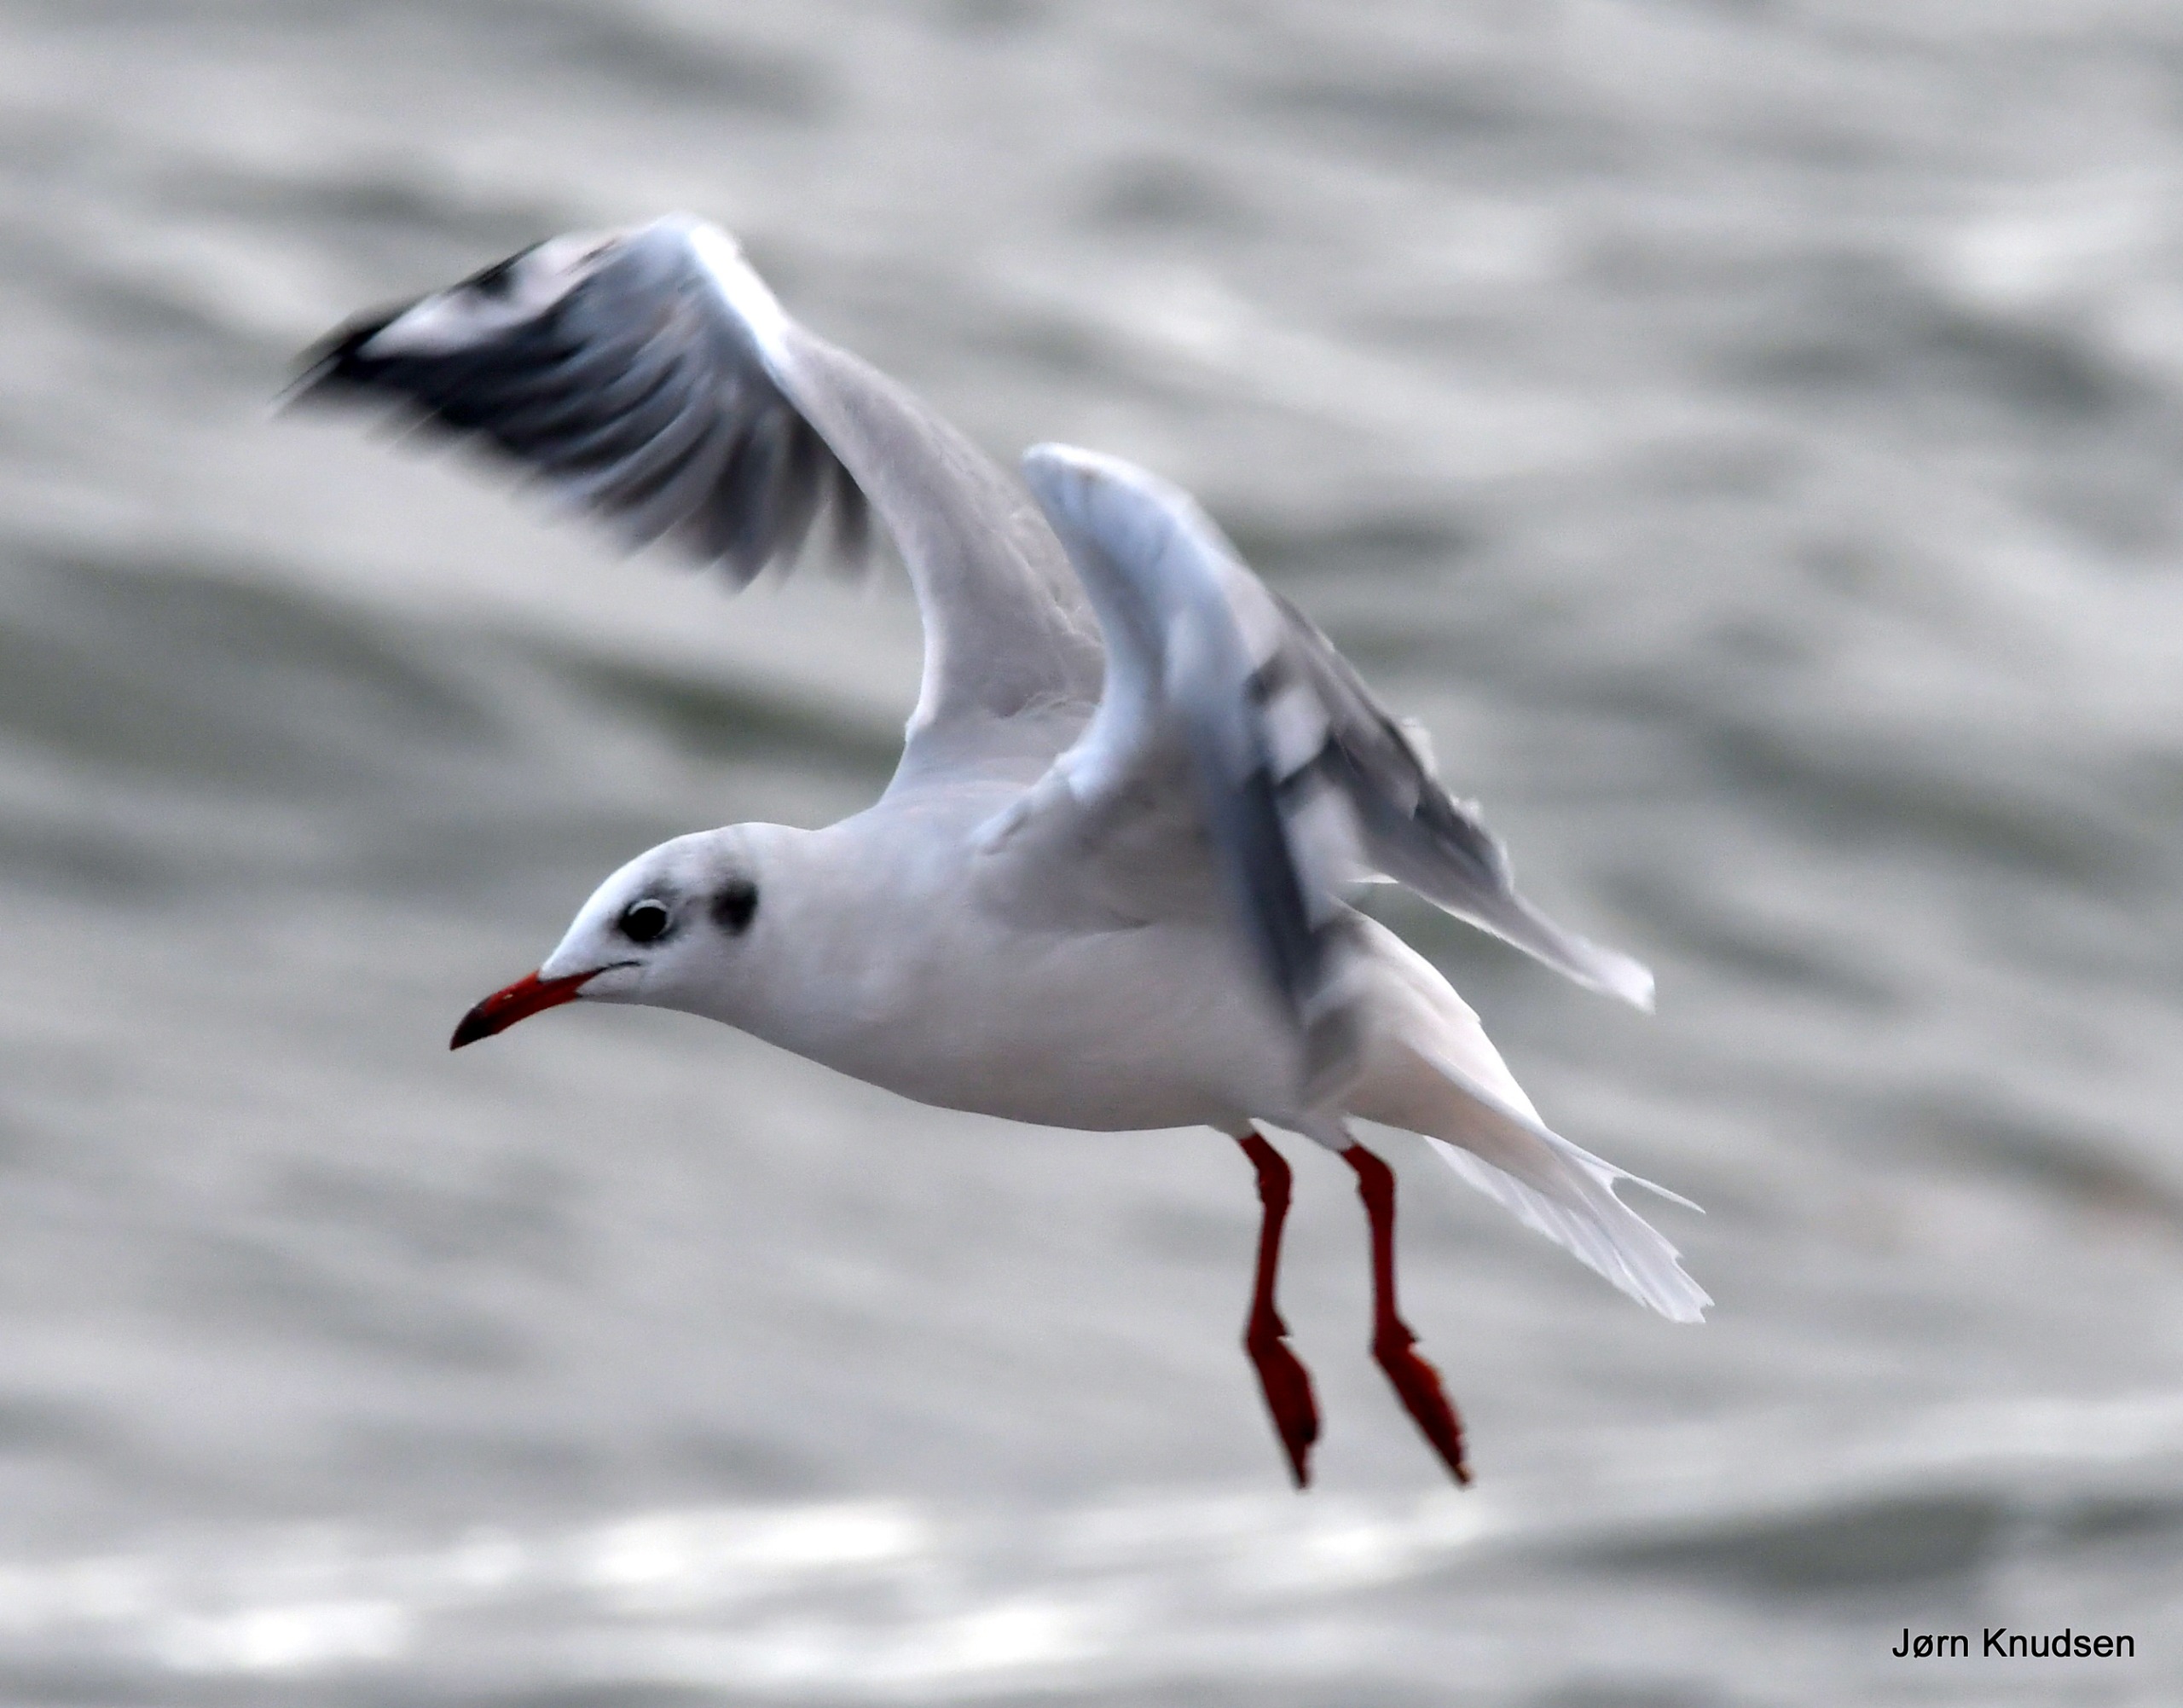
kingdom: Animalia
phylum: Chordata
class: Aves
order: Charadriiformes
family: Laridae
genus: Chroicocephalus
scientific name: Chroicocephalus ridibundus
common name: Hættemåge
